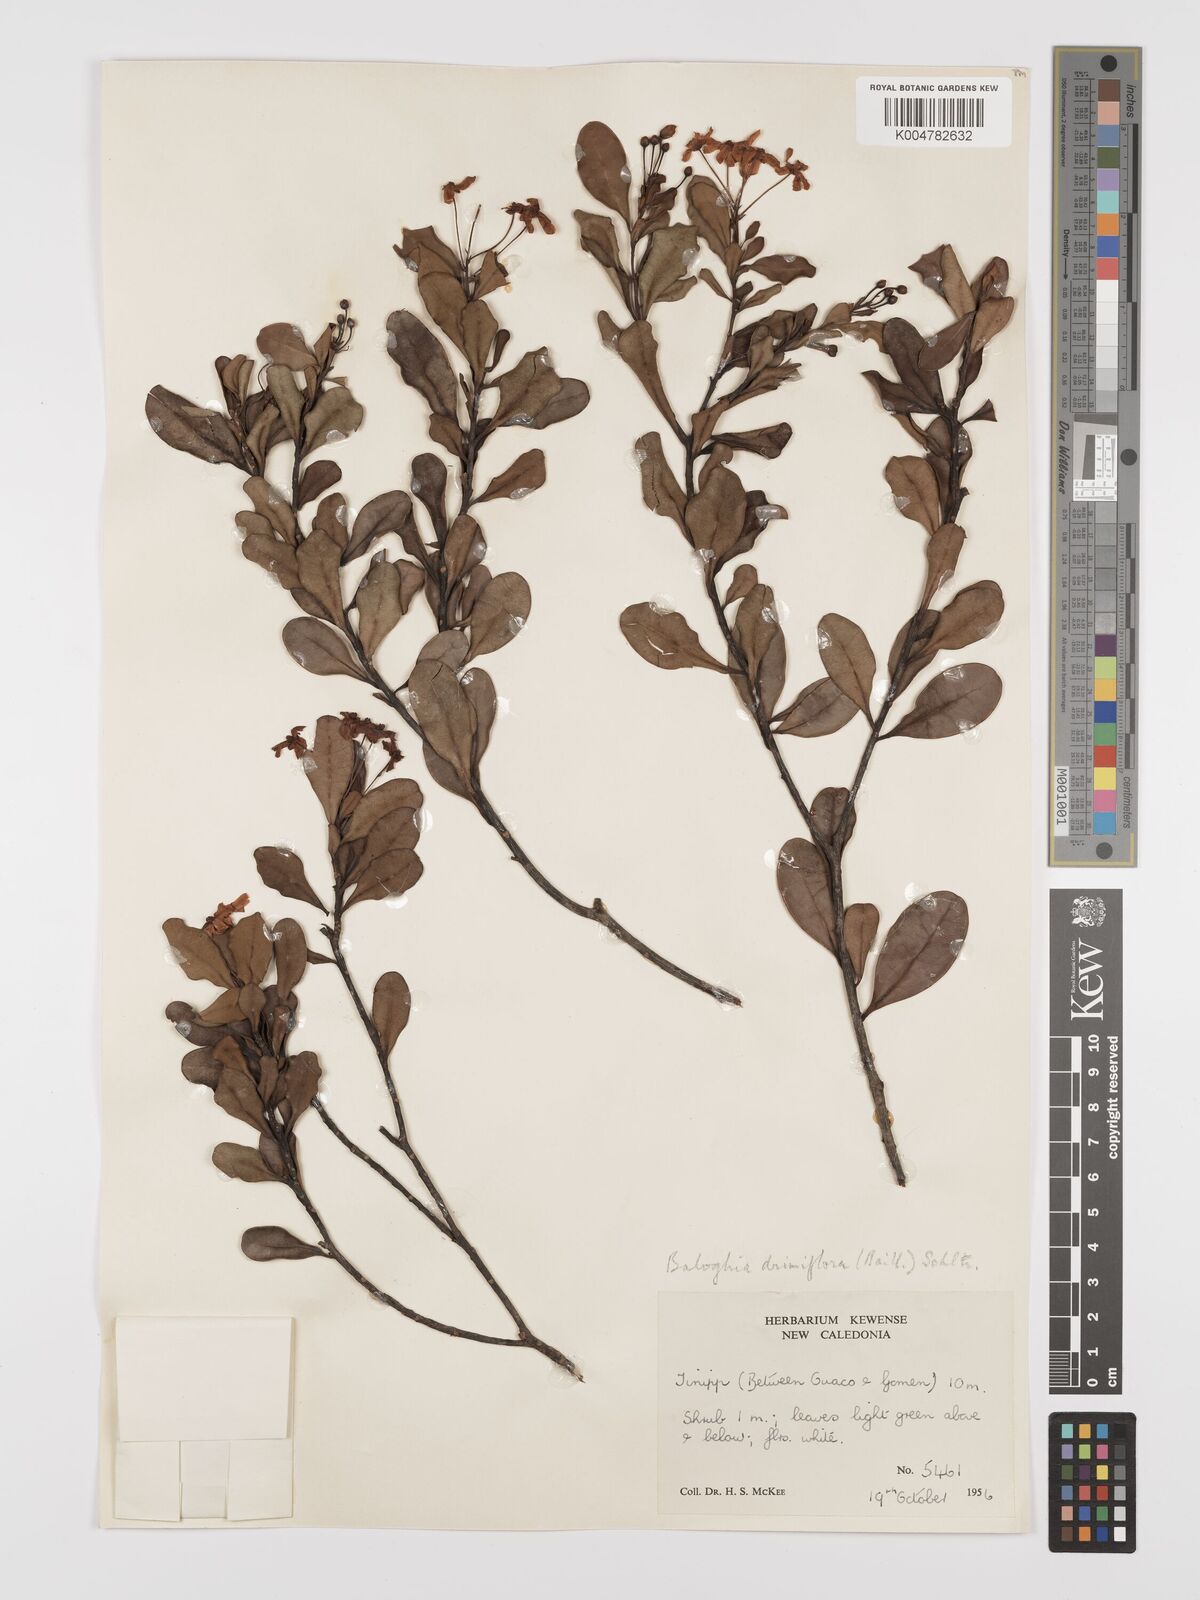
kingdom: Plantae
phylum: Tracheophyta
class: Magnoliopsida
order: Malpighiales
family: Euphorbiaceae
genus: Baloghia
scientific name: Baloghia drimiflora
